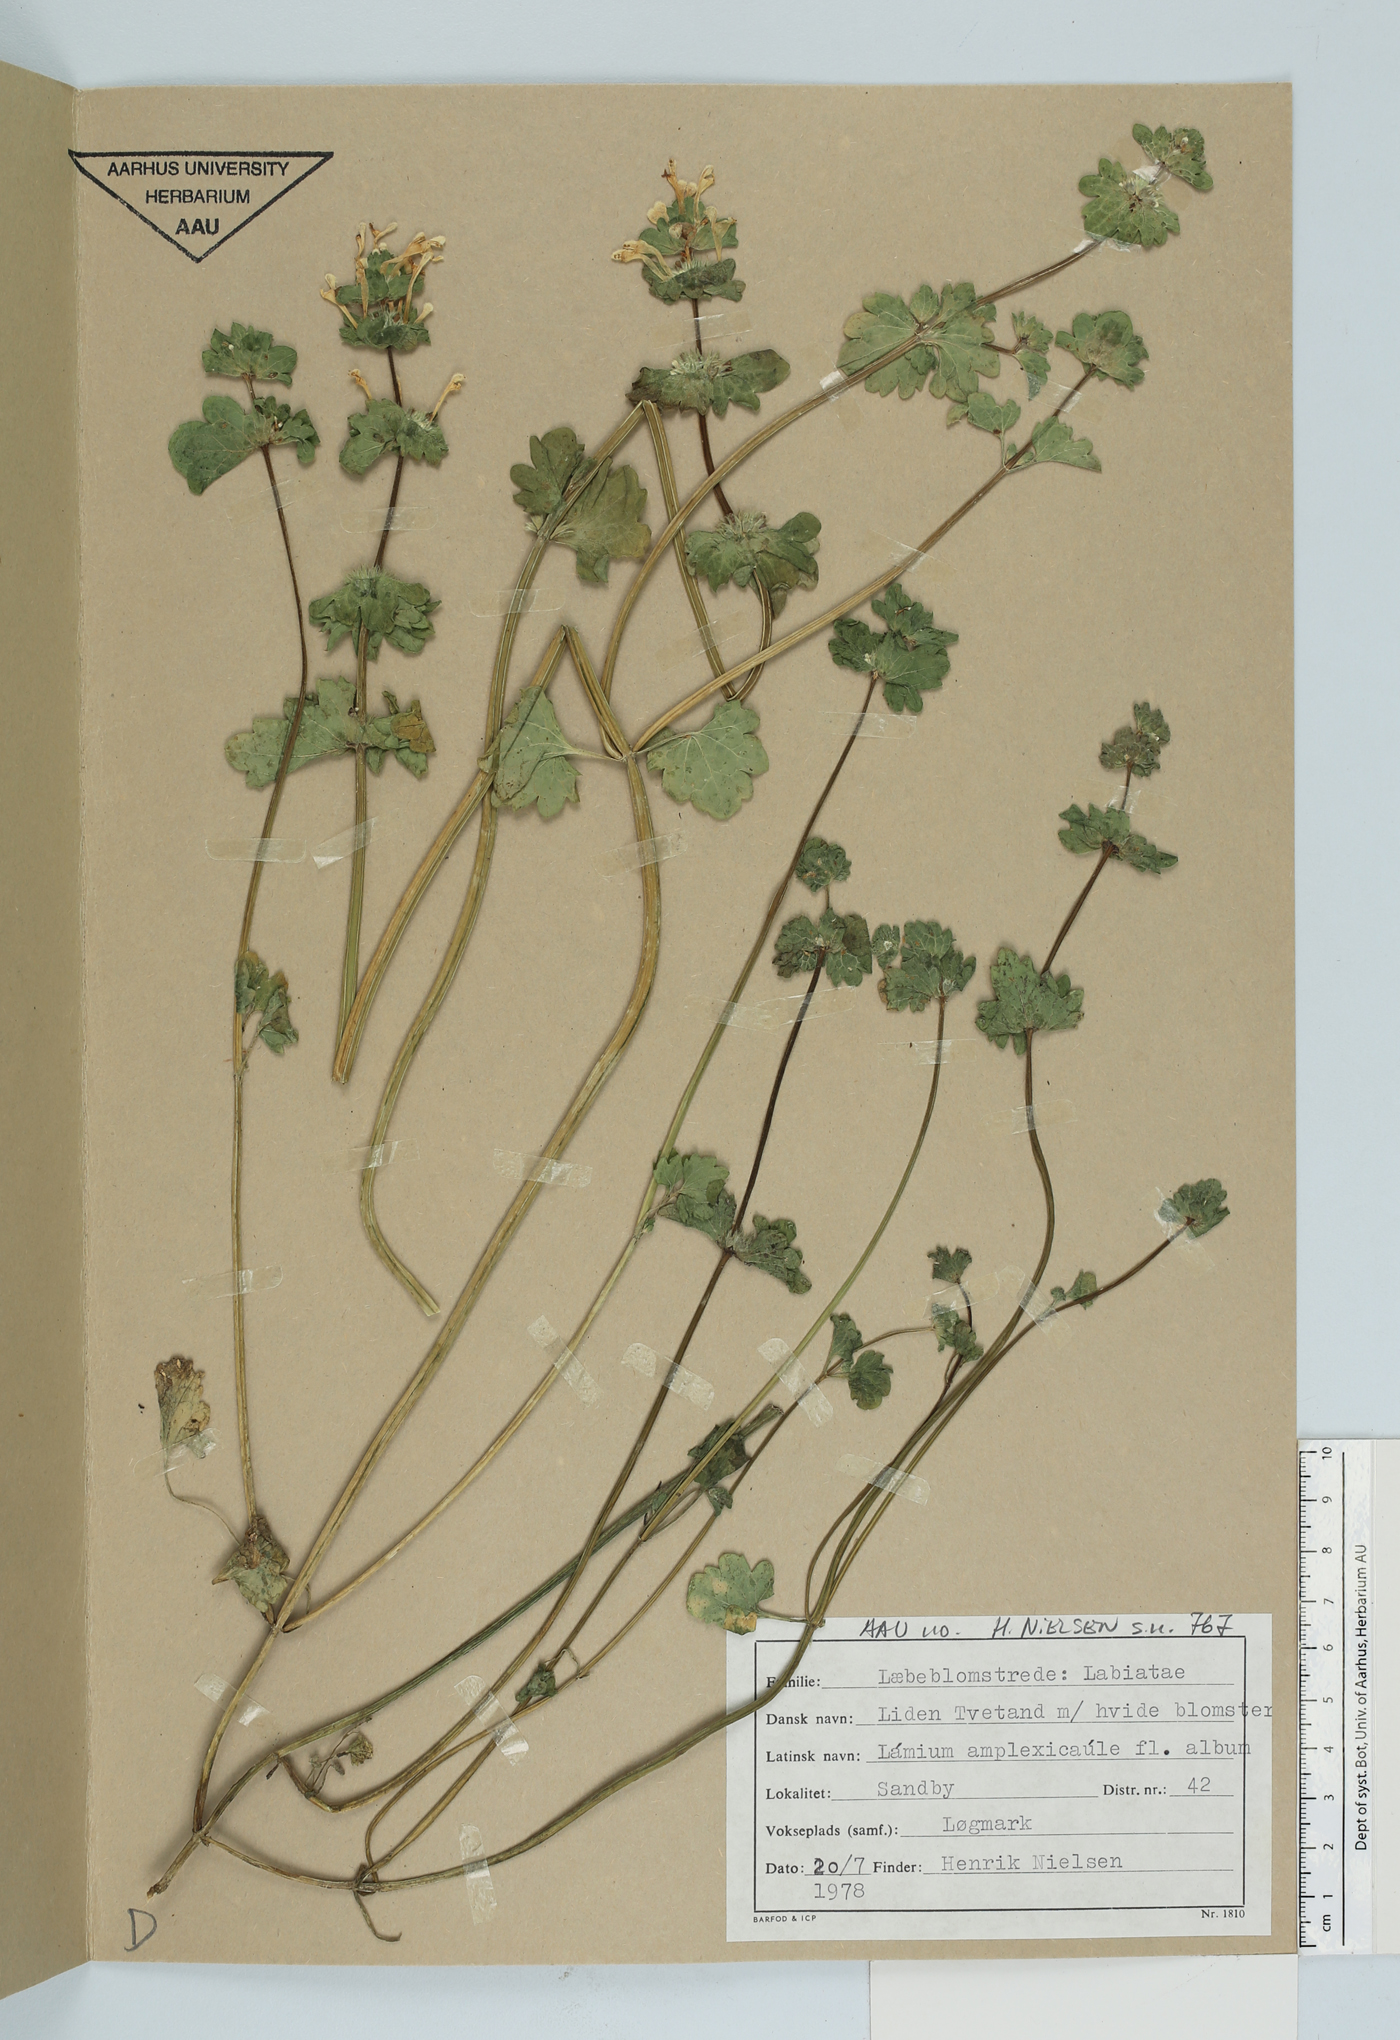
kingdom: Plantae
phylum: Tracheophyta
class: Magnoliopsida
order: Lamiales
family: Lamiaceae
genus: Lamium
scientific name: Lamium amplexicaule
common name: Henbit dead-nettle
